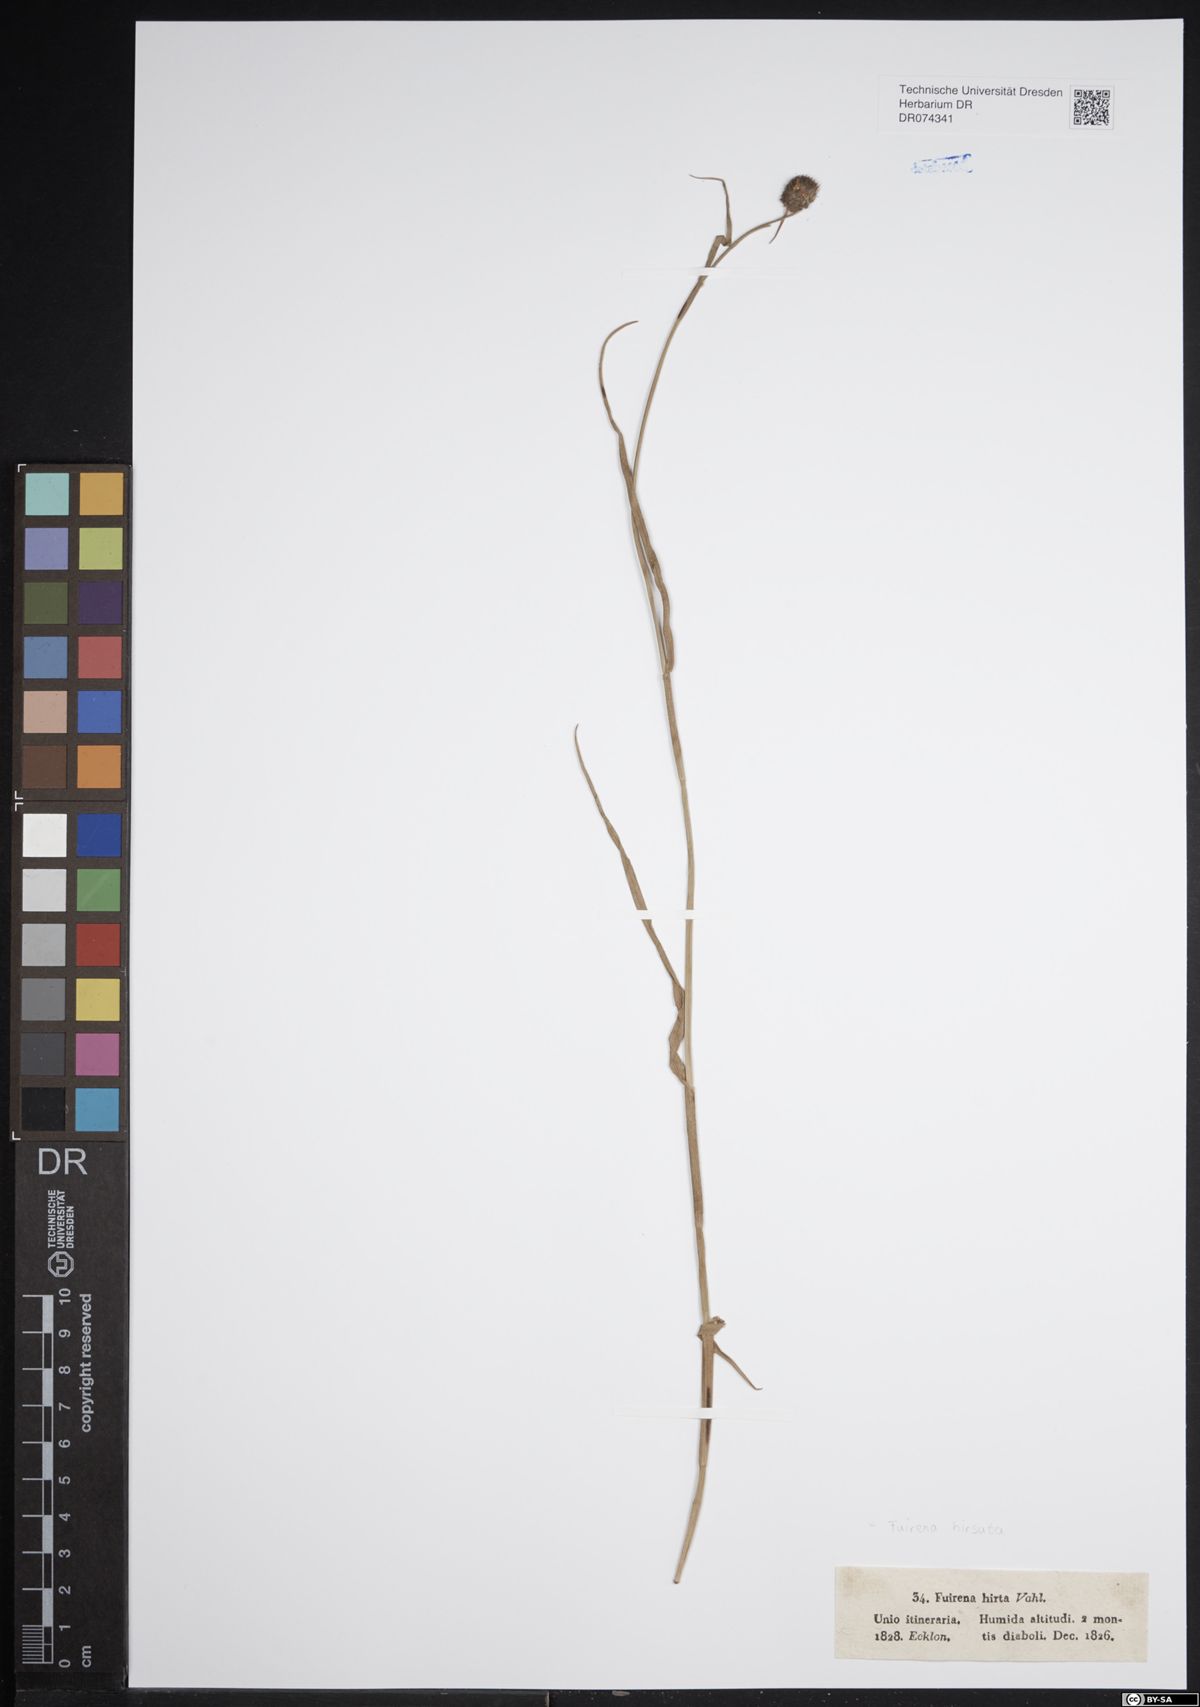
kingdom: Plantae
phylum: Tracheophyta
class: Liliopsida
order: Poales
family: Cyperaceae
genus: Fuirena
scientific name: Fuirena hirsuta
